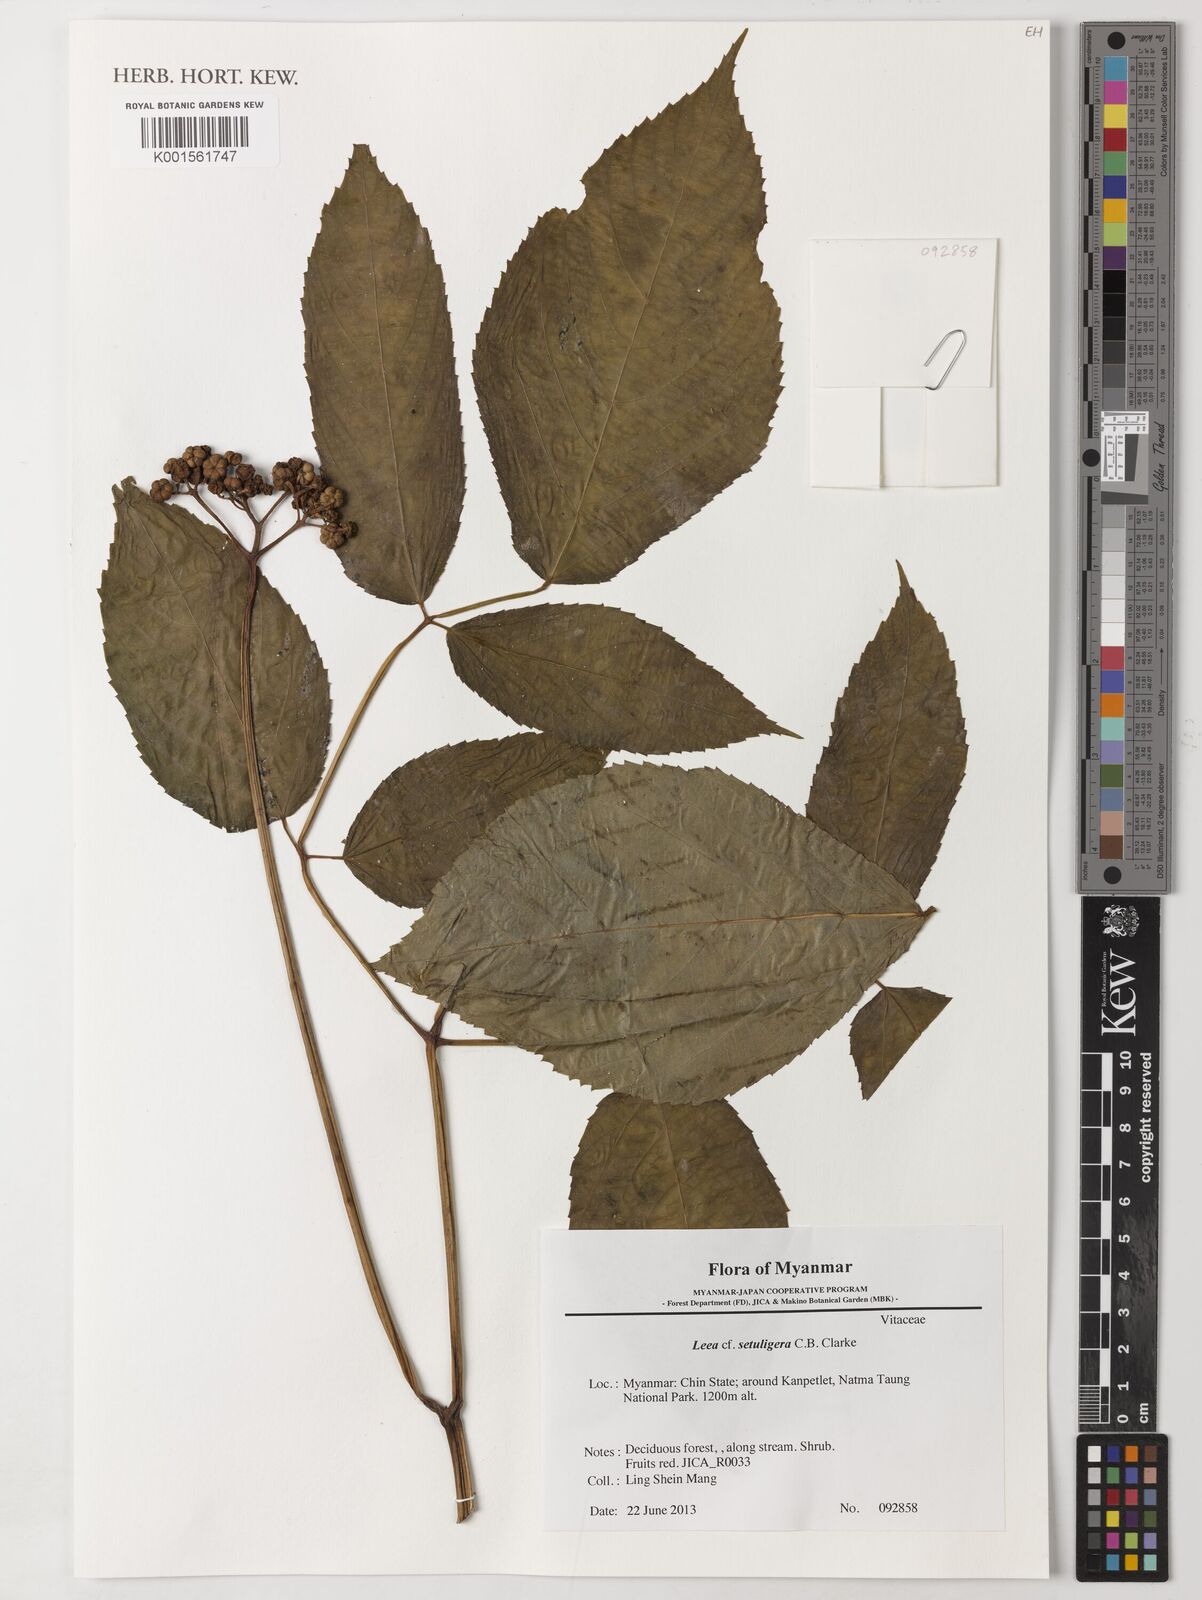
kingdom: Plantae
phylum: Tracheophyta
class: Magnoliopsida
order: Vitales
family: Vitaceae
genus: Leea
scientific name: Leea setuligera
